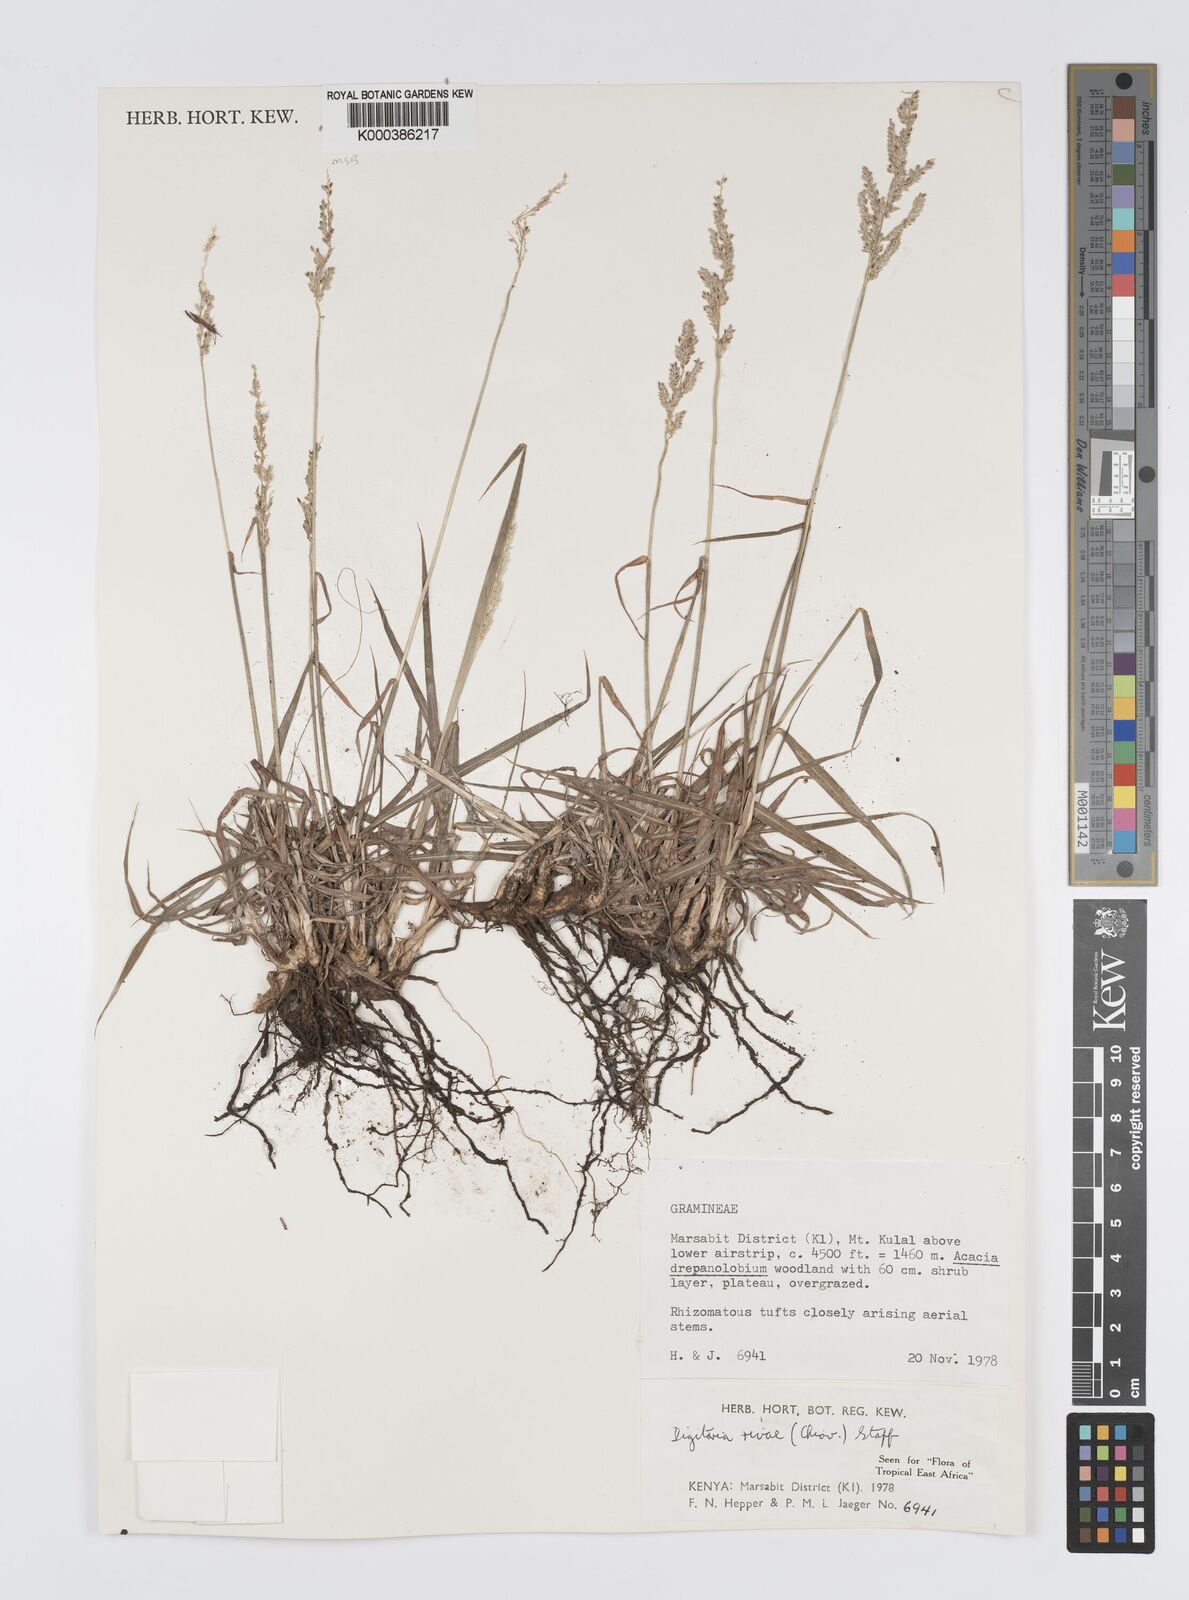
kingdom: Plantae
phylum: Tracheophyta
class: Liliopsida
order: Poales
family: Poaceae
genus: Digitaria
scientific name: Digitaria rivae
